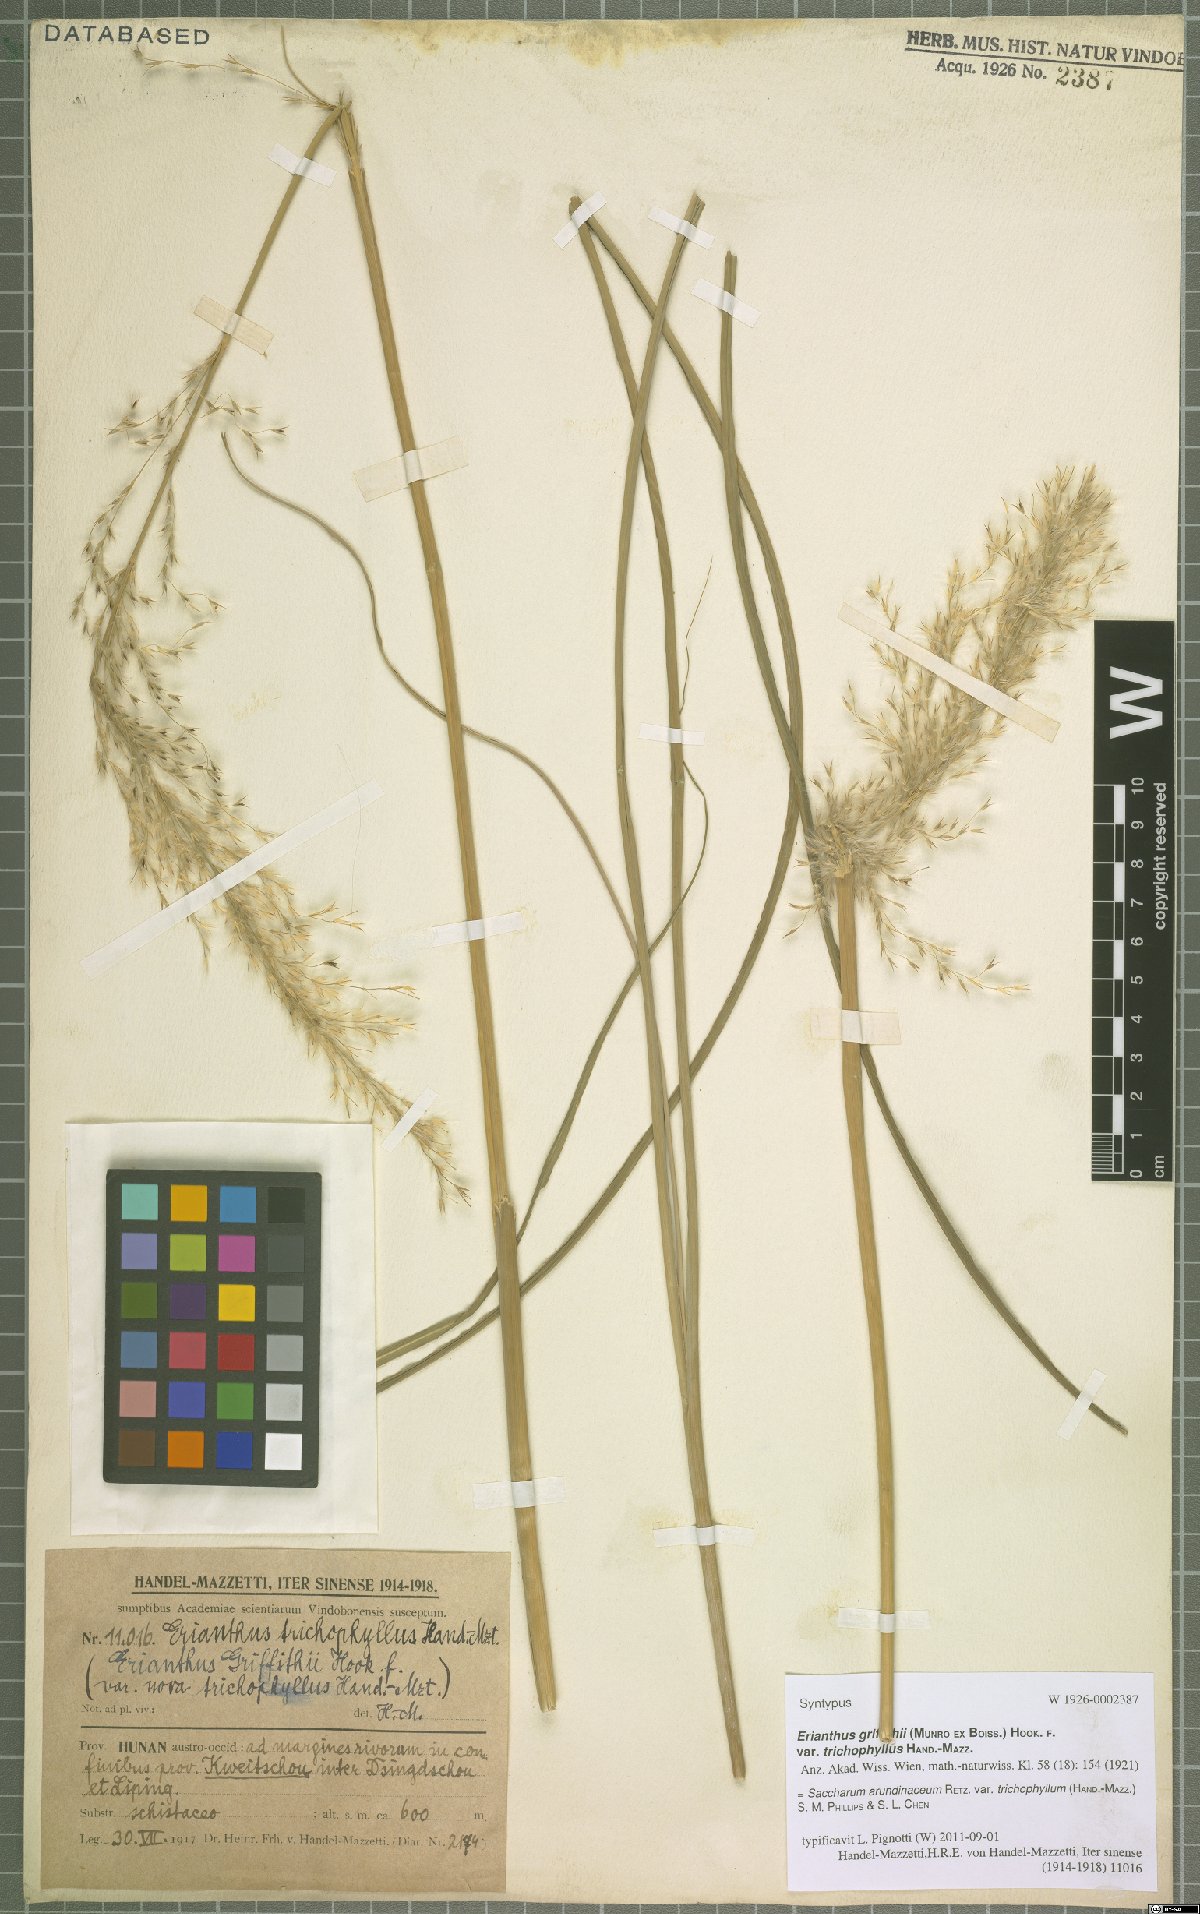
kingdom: Plantae
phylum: Tracheophyta
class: Liliopsida
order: Poales
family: Poaceae
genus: Tripidium
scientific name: Tripidium arundinaceum
